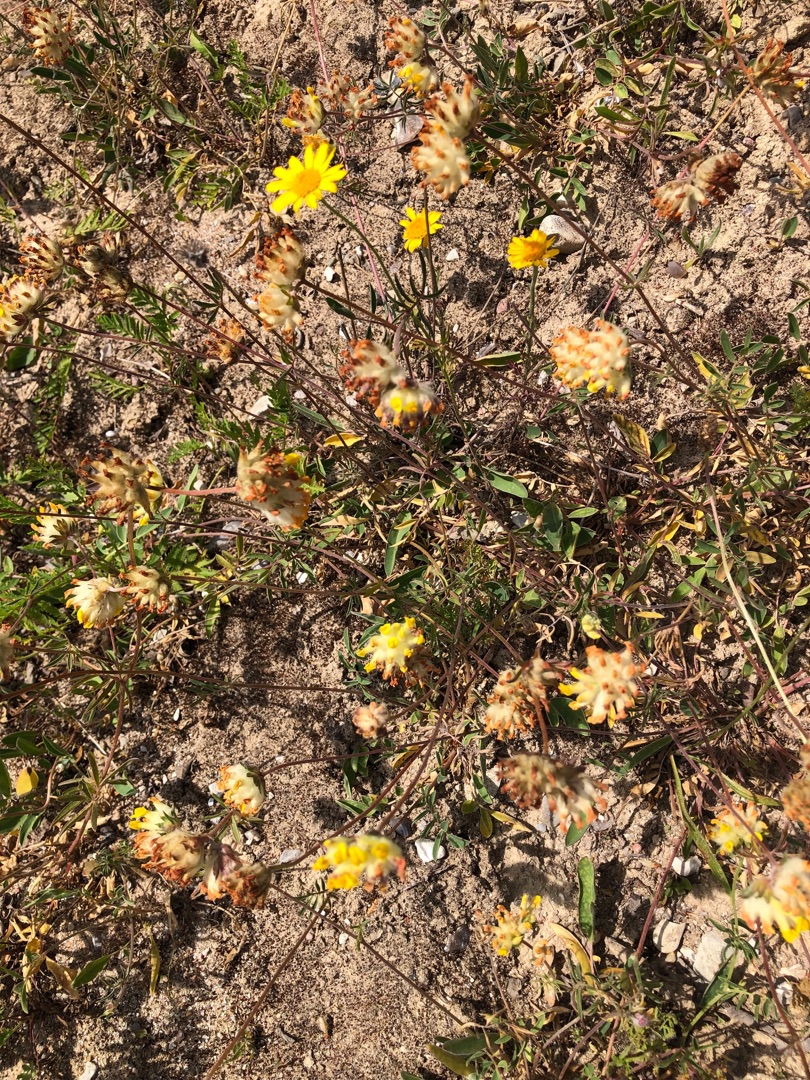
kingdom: Plantae
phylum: Tracheophyta
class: Magnoliopsida
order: Fabales
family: Fabaceae
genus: Anthyllis
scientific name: Anthyllis vulneraria
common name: Rundbælg
